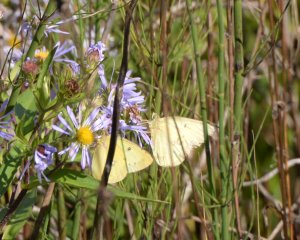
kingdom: Animalia
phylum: Arthropoda
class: Insecta
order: Lepidoptera
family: Pieridae
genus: Colias
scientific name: Colias philodice
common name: Clouded Sulphur
